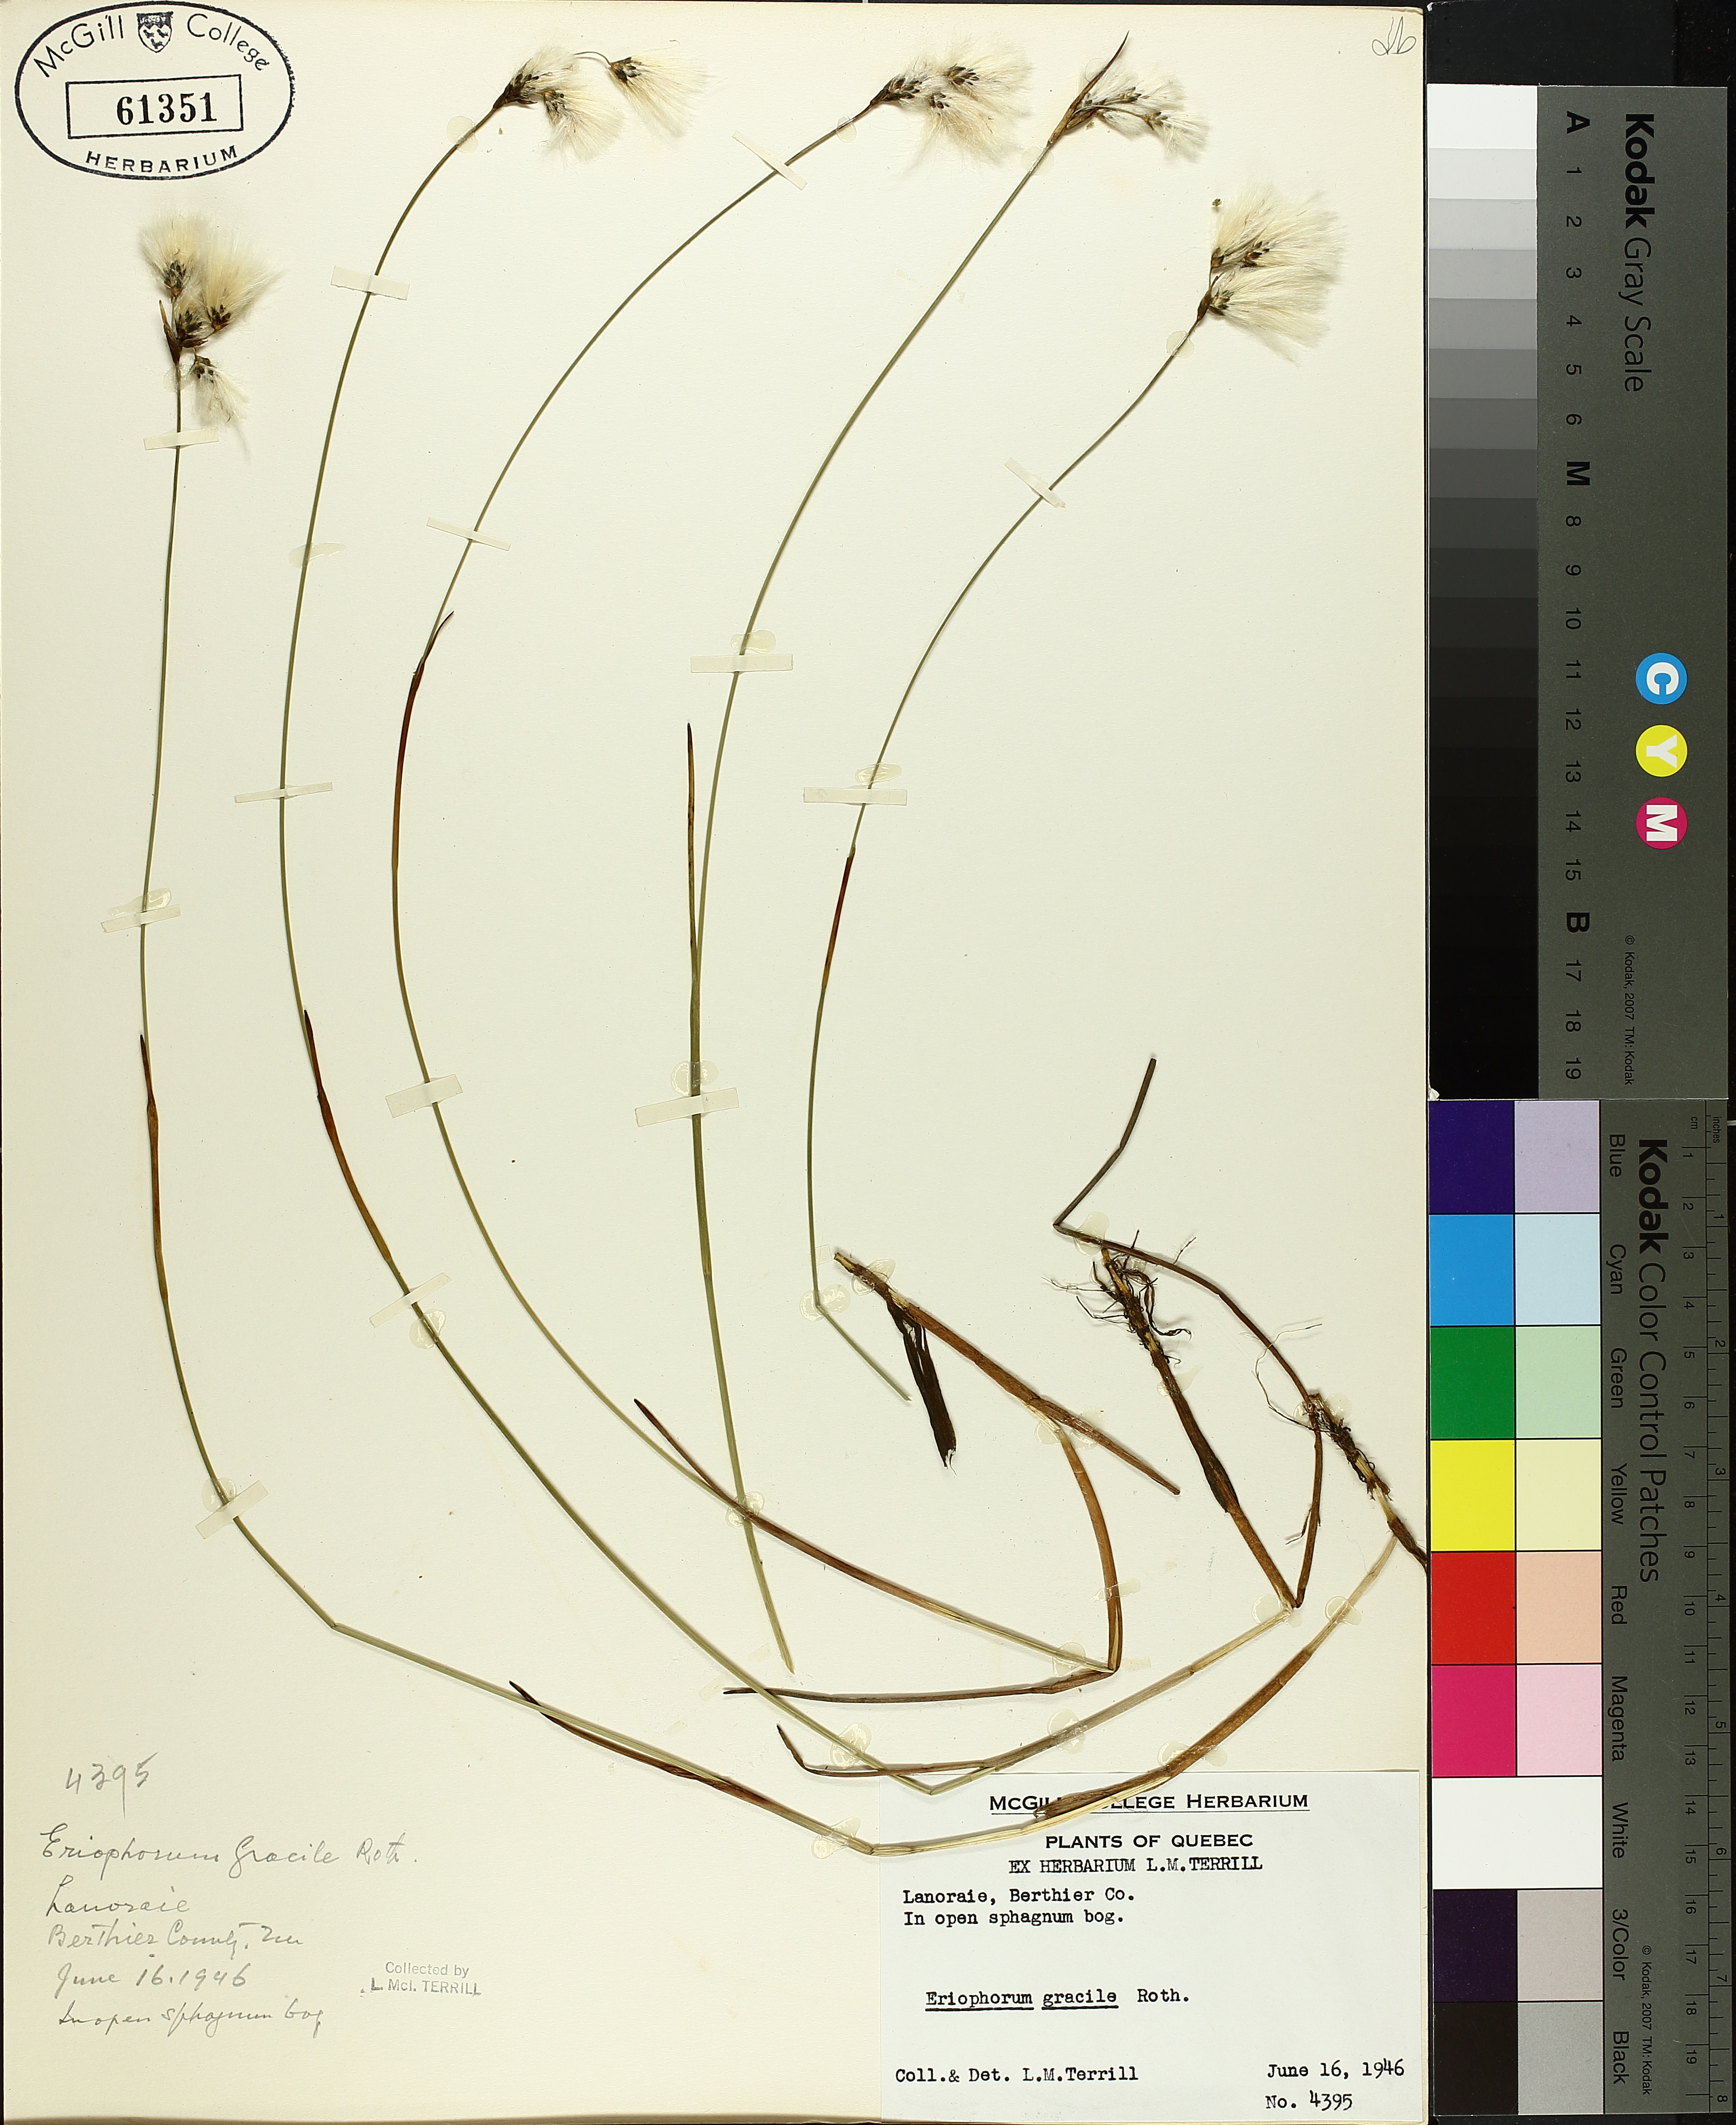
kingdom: Plantae
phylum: Tracheophyta
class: Liliopsida
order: Poales
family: Cyperaceae
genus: Eriophorum
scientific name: Eriophorum gracile
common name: Slender cottongrass
